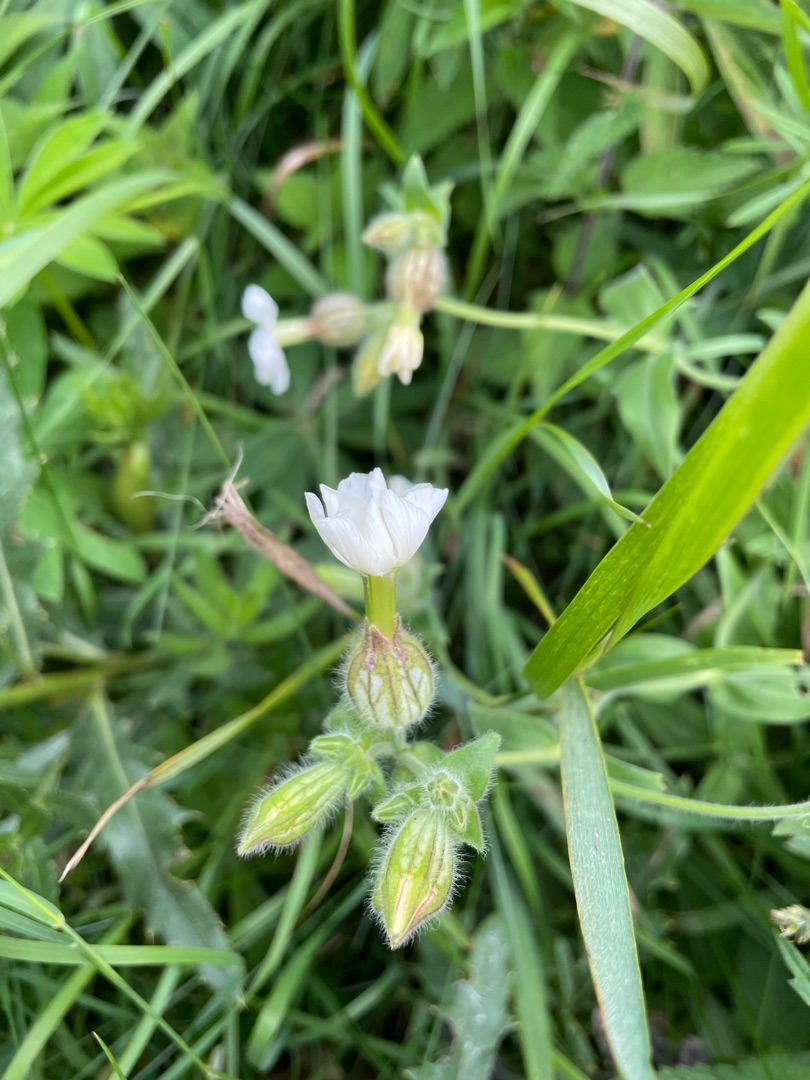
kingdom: Plantae
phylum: Tracheophyta
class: Magnoliopsida
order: Caryophyllales
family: Caryophyllaceae
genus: Silene
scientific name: Silene latifolia
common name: Aftenpragtstjerne
